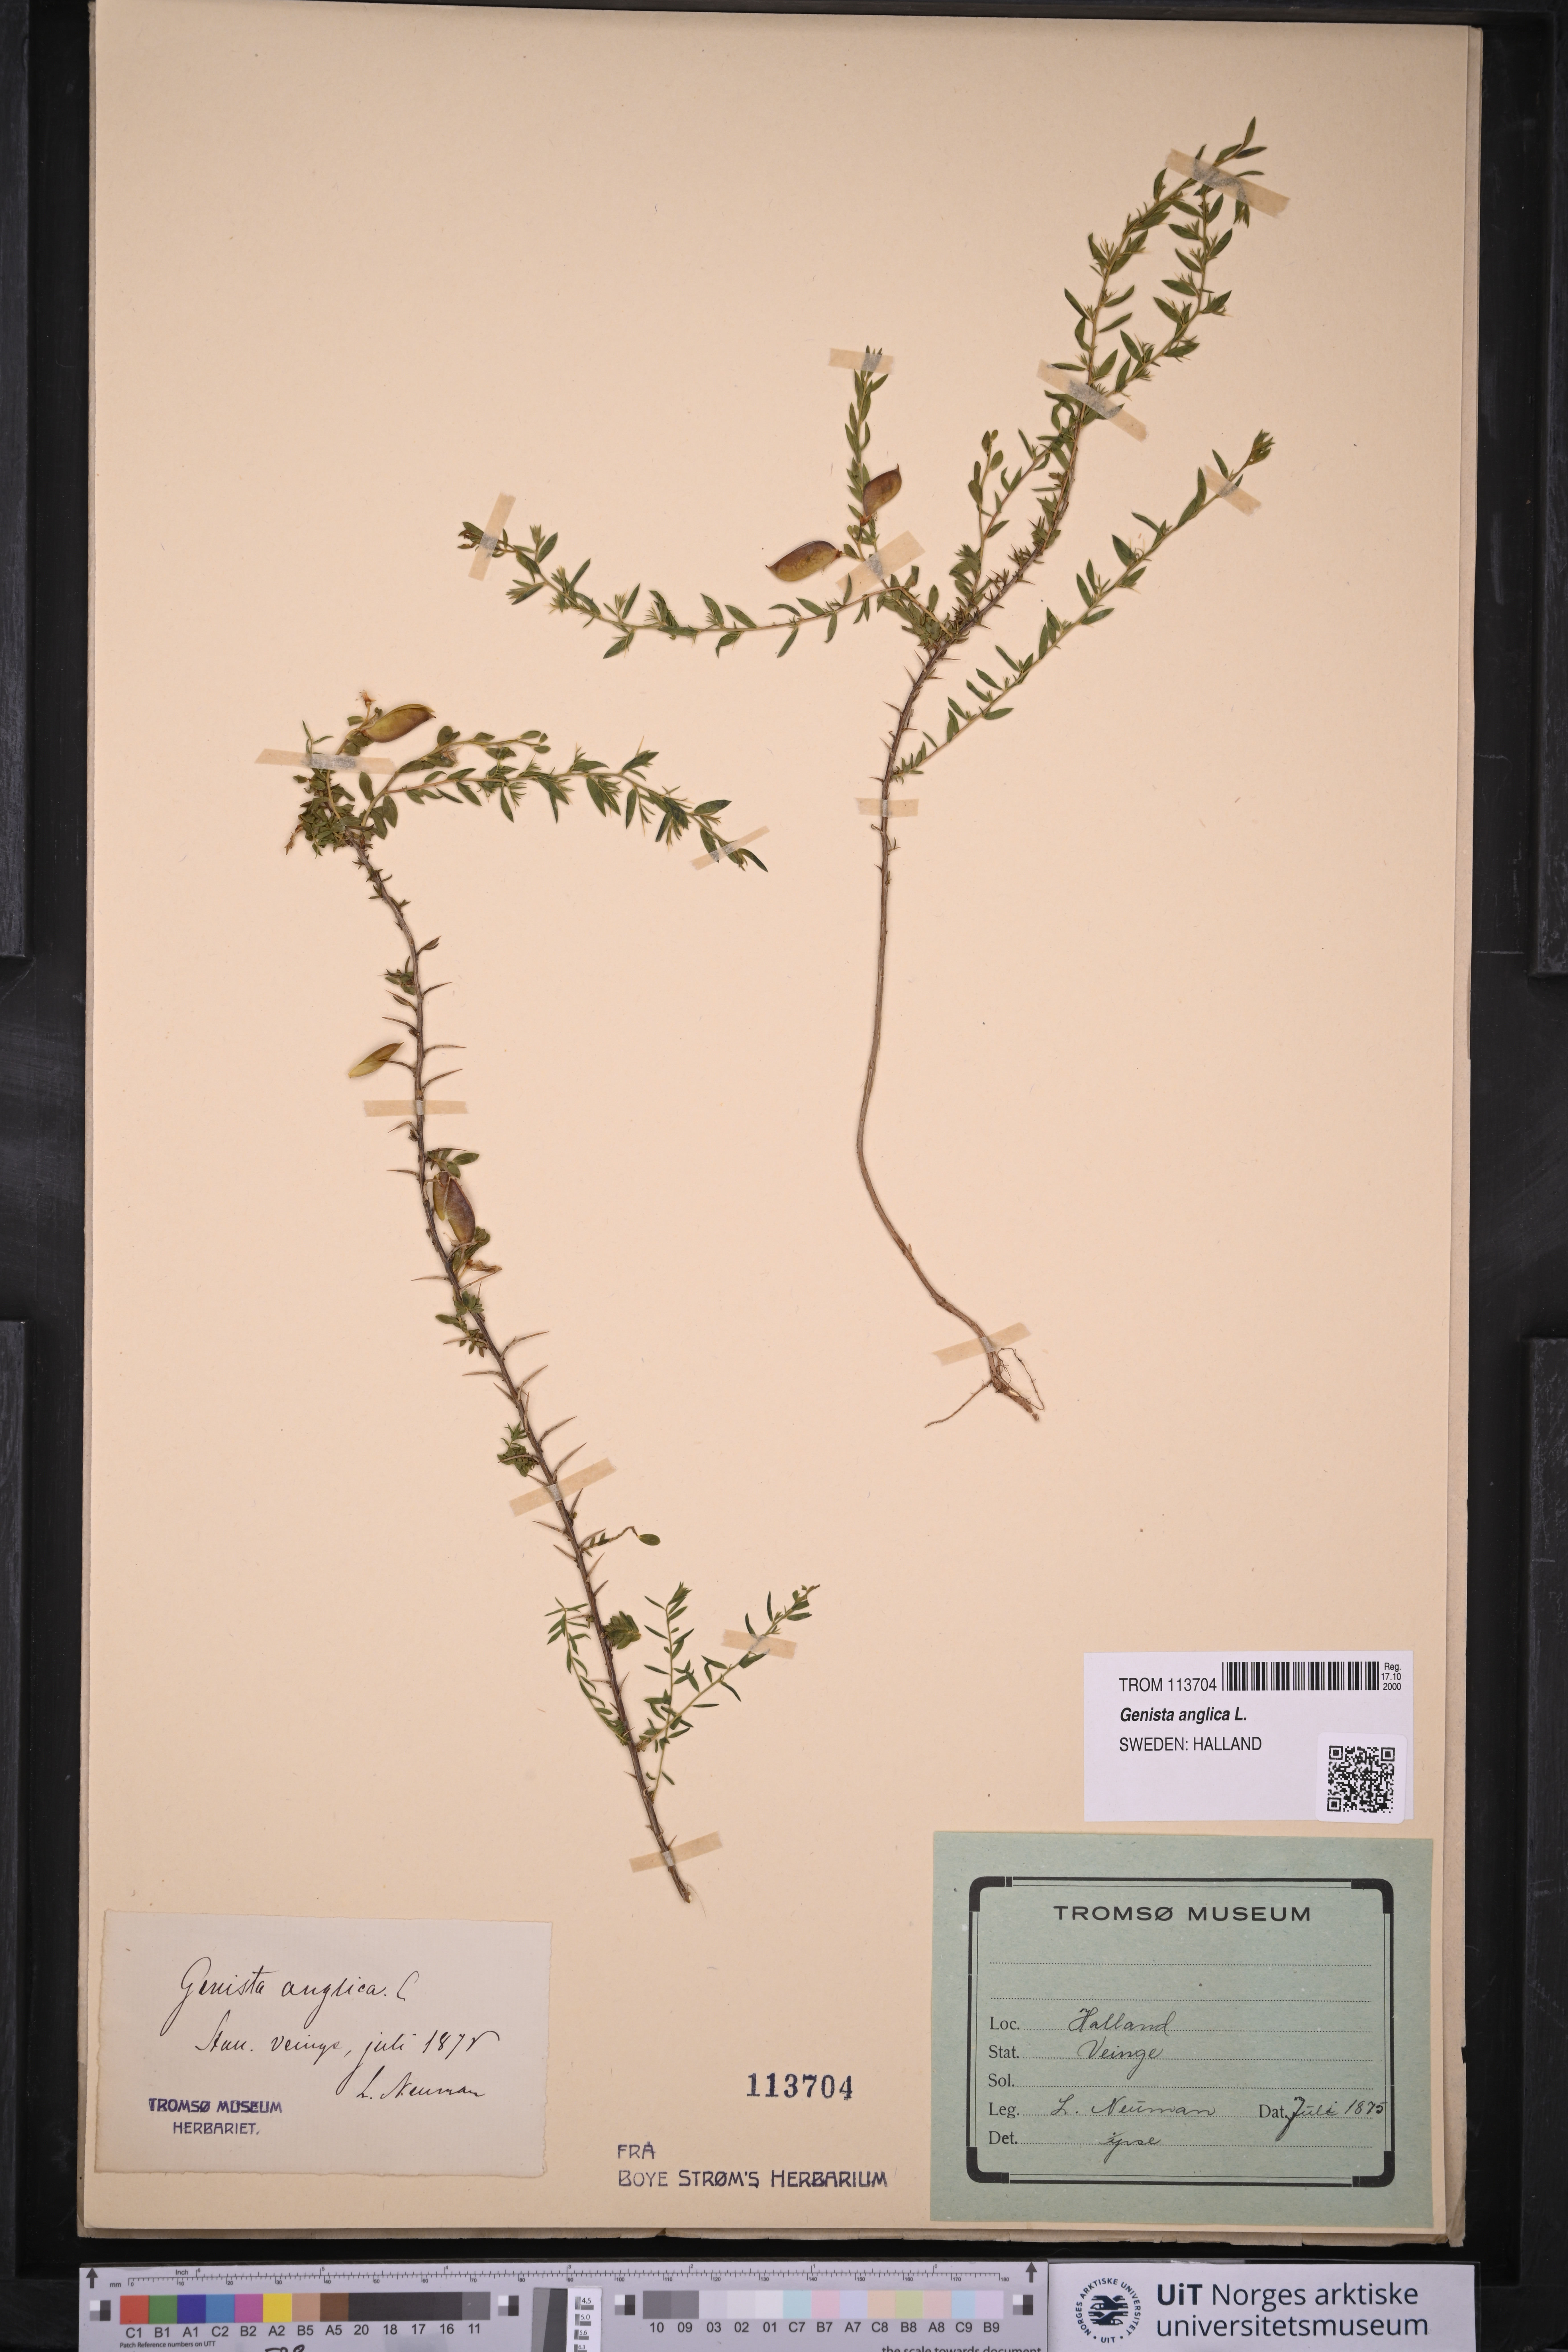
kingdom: Plantae
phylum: Tracheophyta
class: Magnoliopsida
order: Fabales
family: Fabaceae
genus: Genista
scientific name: Genista anglica
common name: Petty whin
